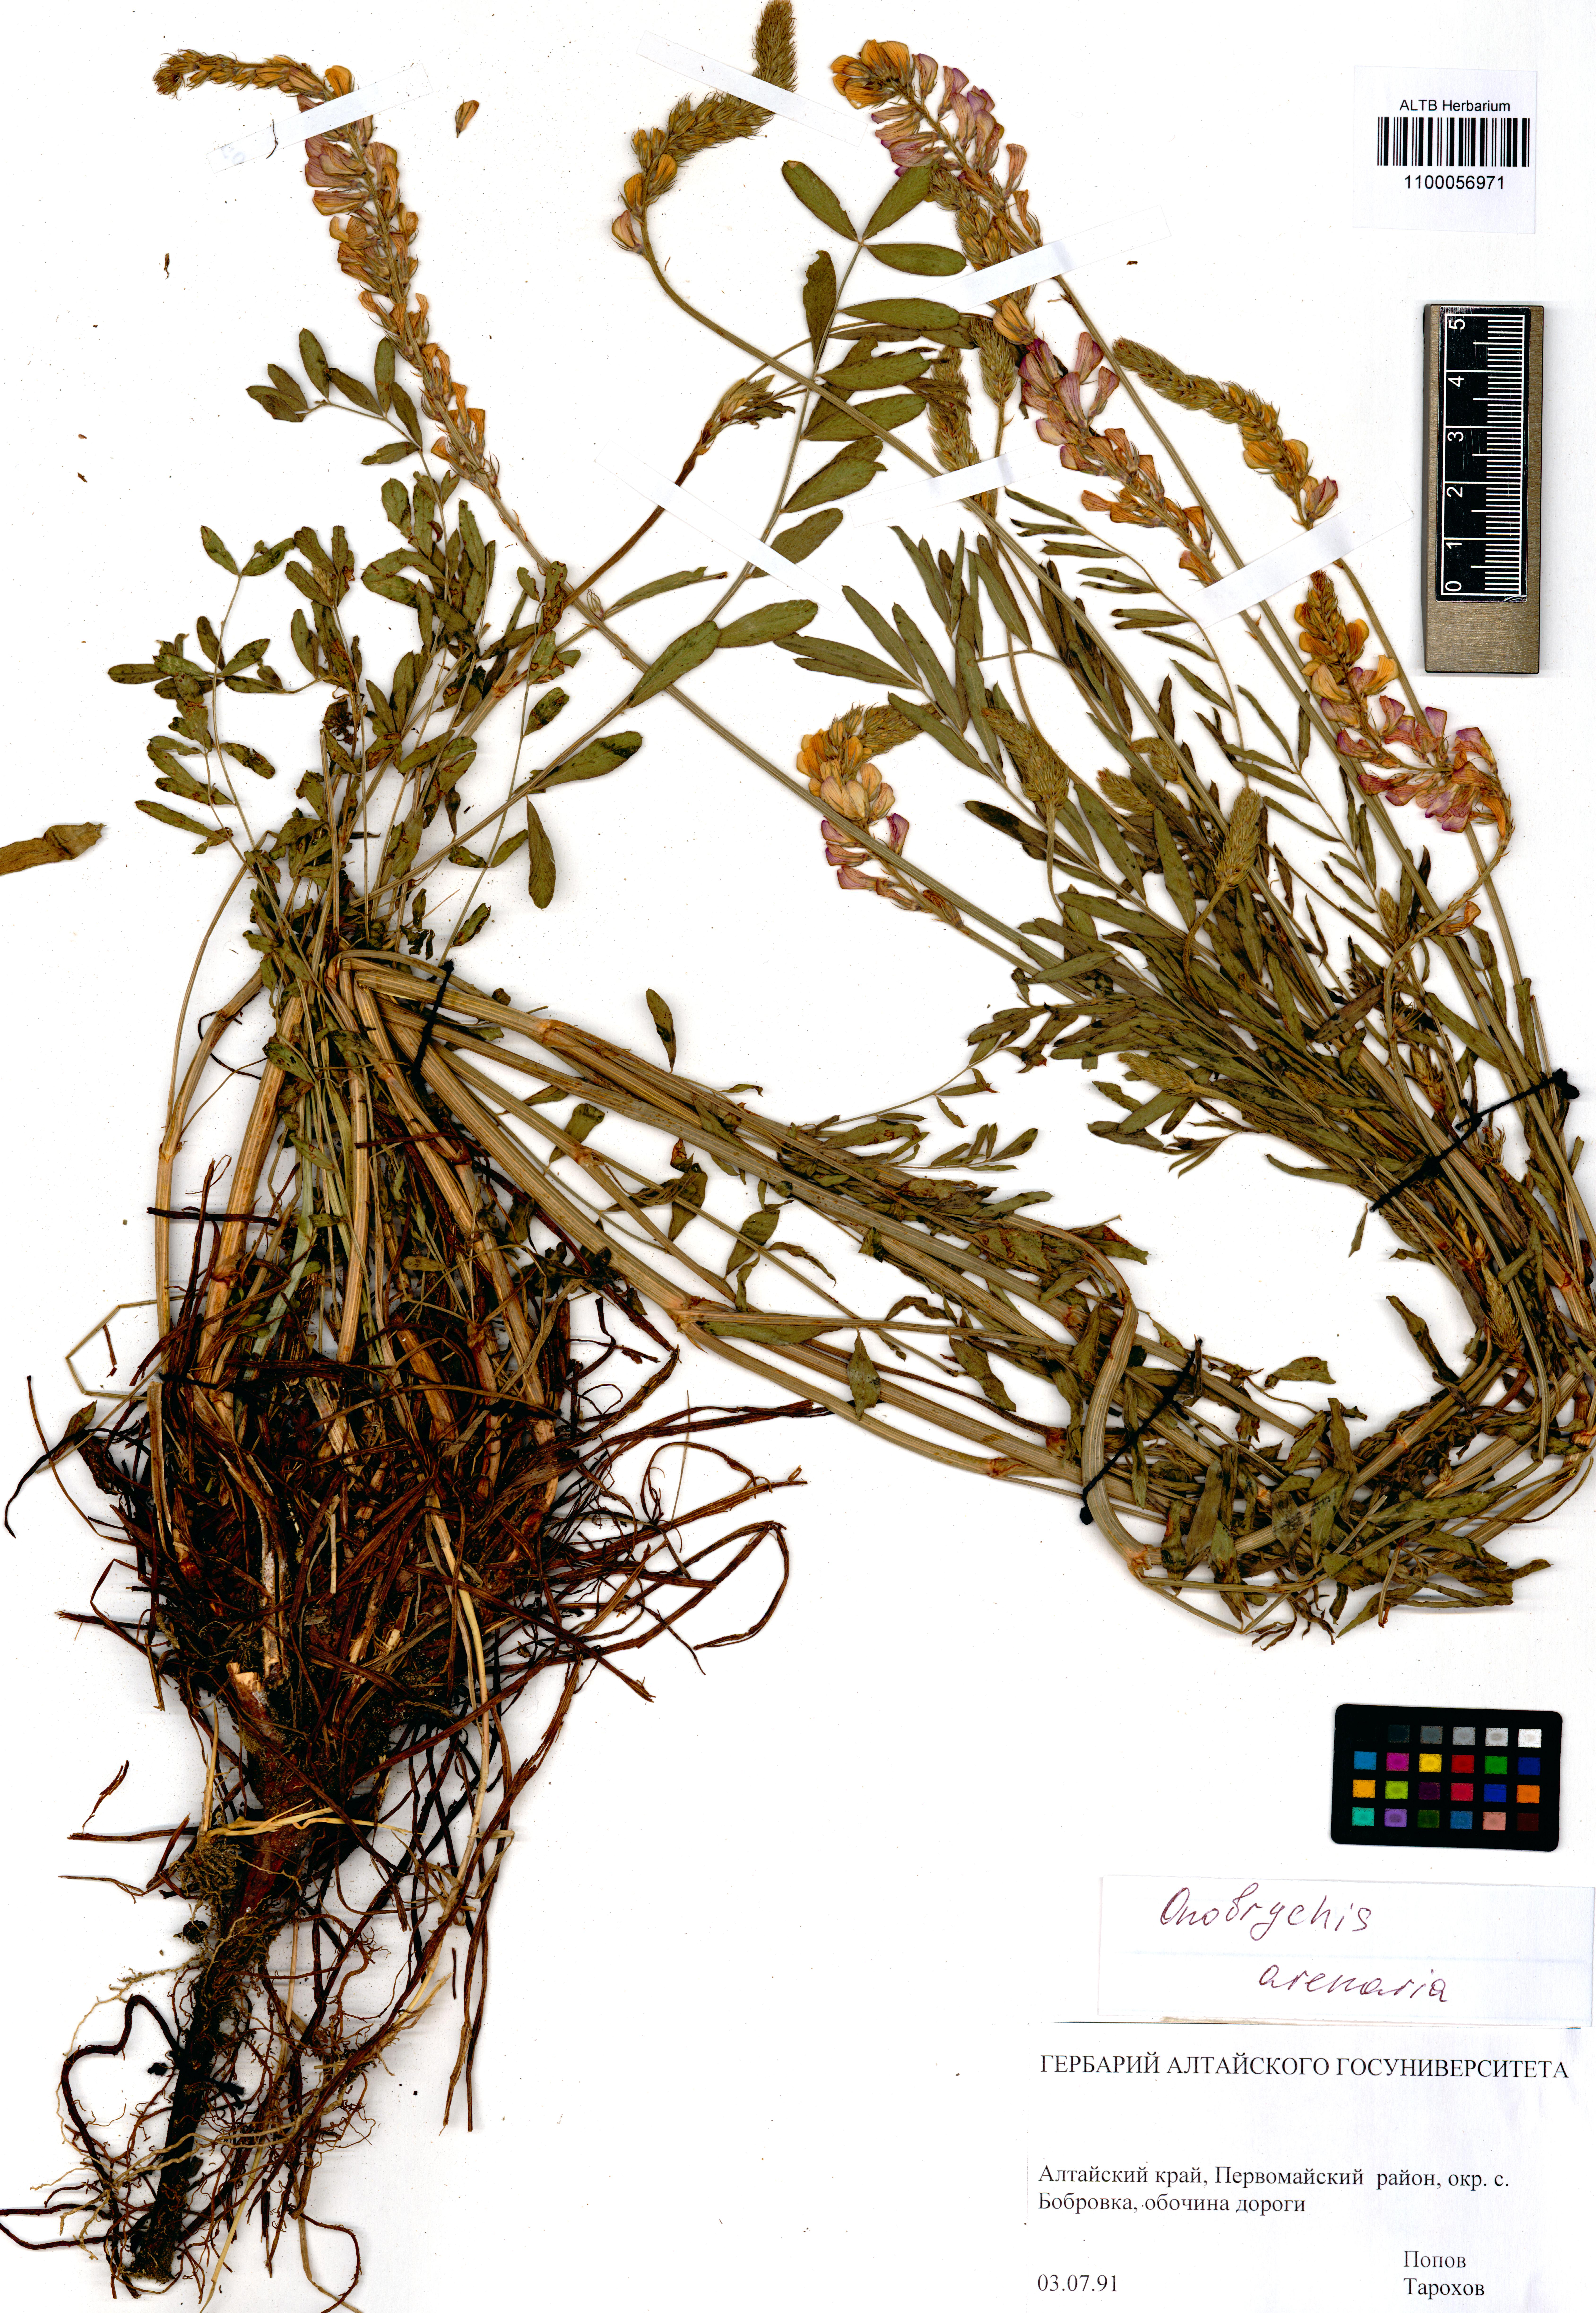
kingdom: Plantae
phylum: Tracheophyta
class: Magnoliopsida
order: Fabales
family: Fabaceae
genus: Onobrychis
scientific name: Onobrychis arenaria
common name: Sand esparcet
